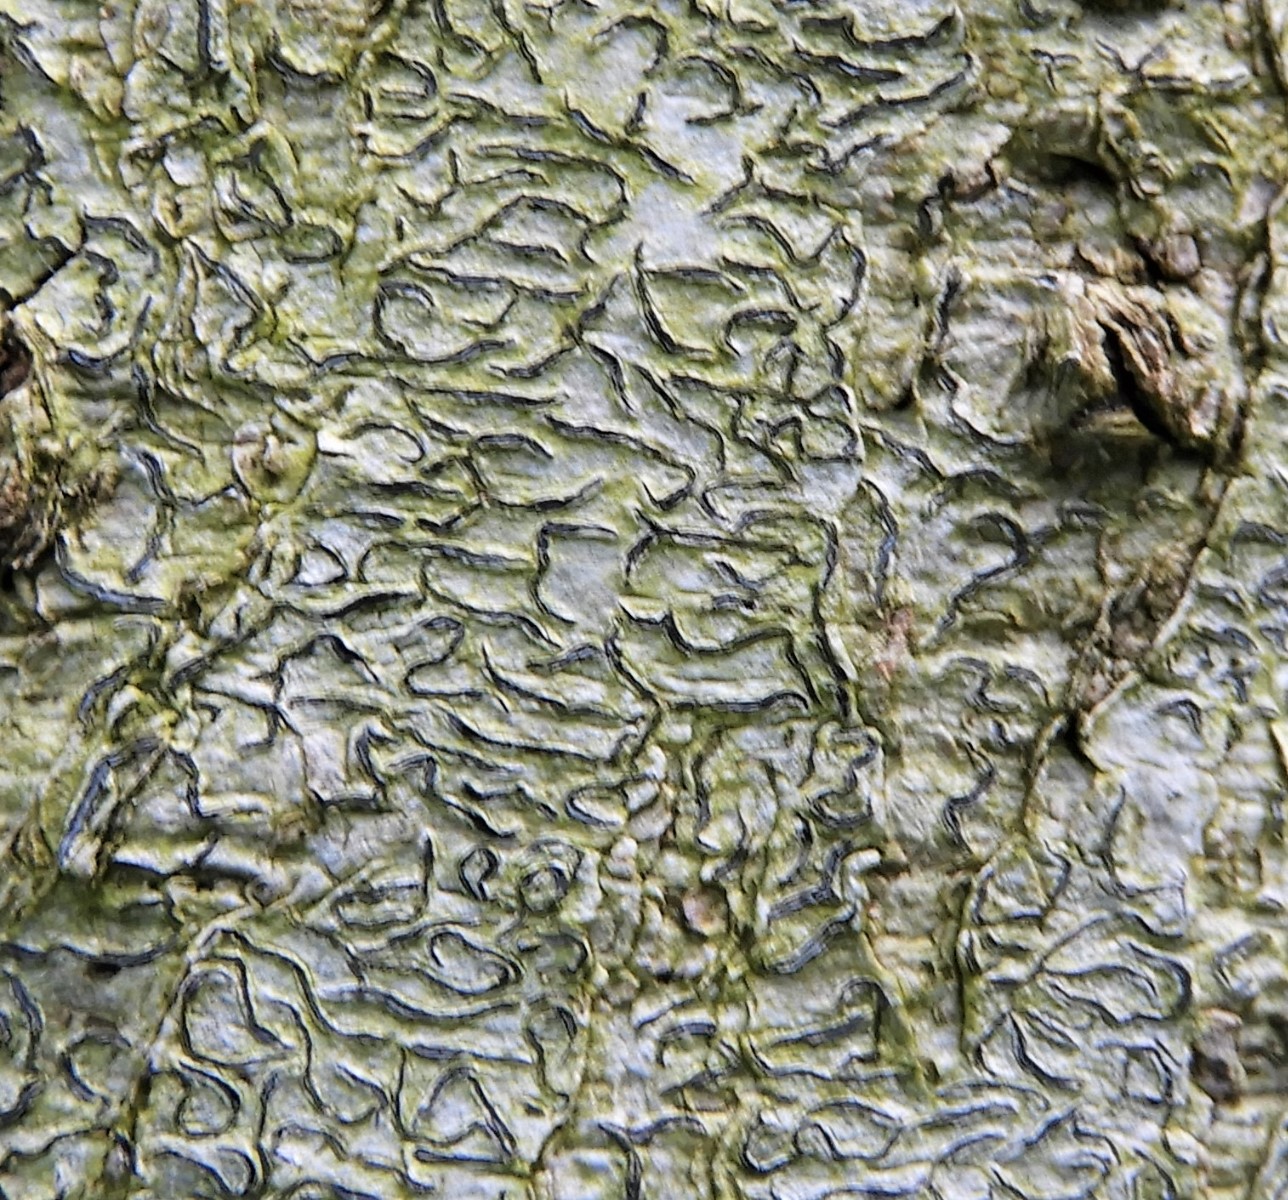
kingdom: Fungi
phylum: Ascomycota
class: Lecanoromycetes
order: Ostropales
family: Graphidaceae
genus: Graphis
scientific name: Graphis scripta
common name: almindelig skriftlav
